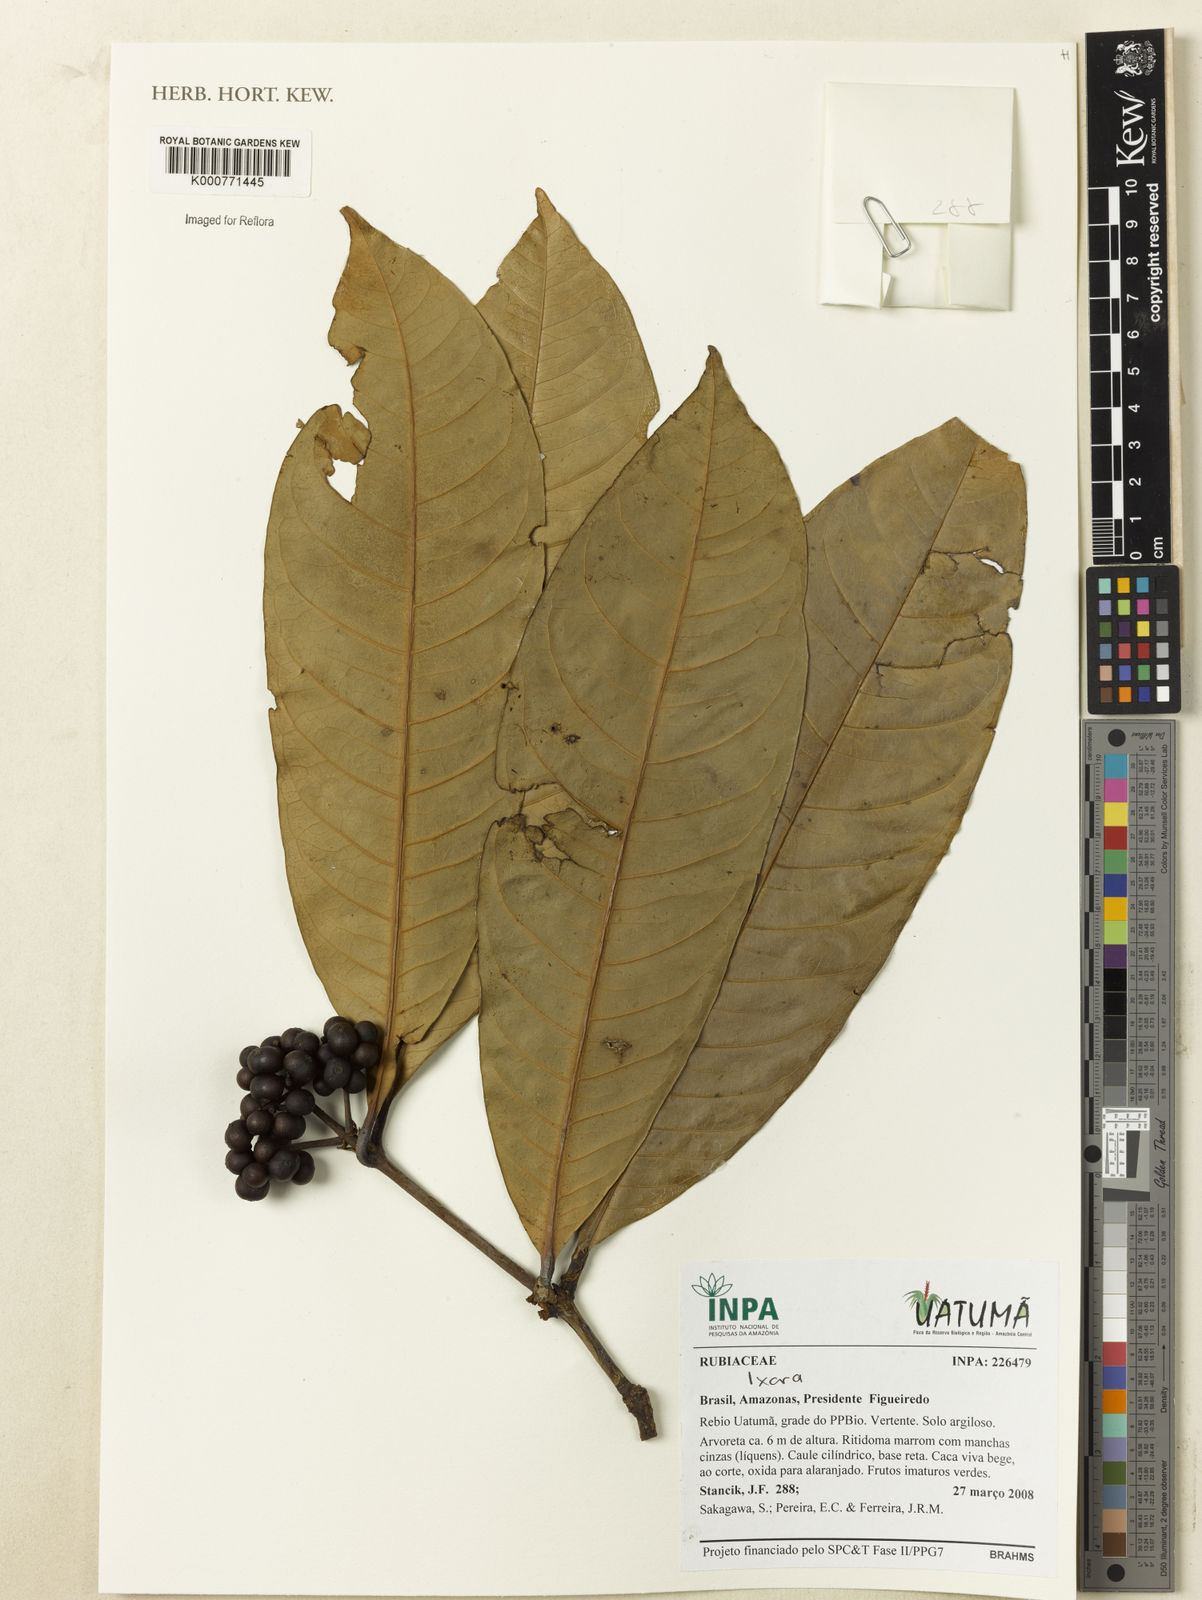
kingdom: Plantae
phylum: Tracheophyta
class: Magnoliopsida
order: Gentianales
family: Rubiaceae
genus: Ixora
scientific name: Ixora
